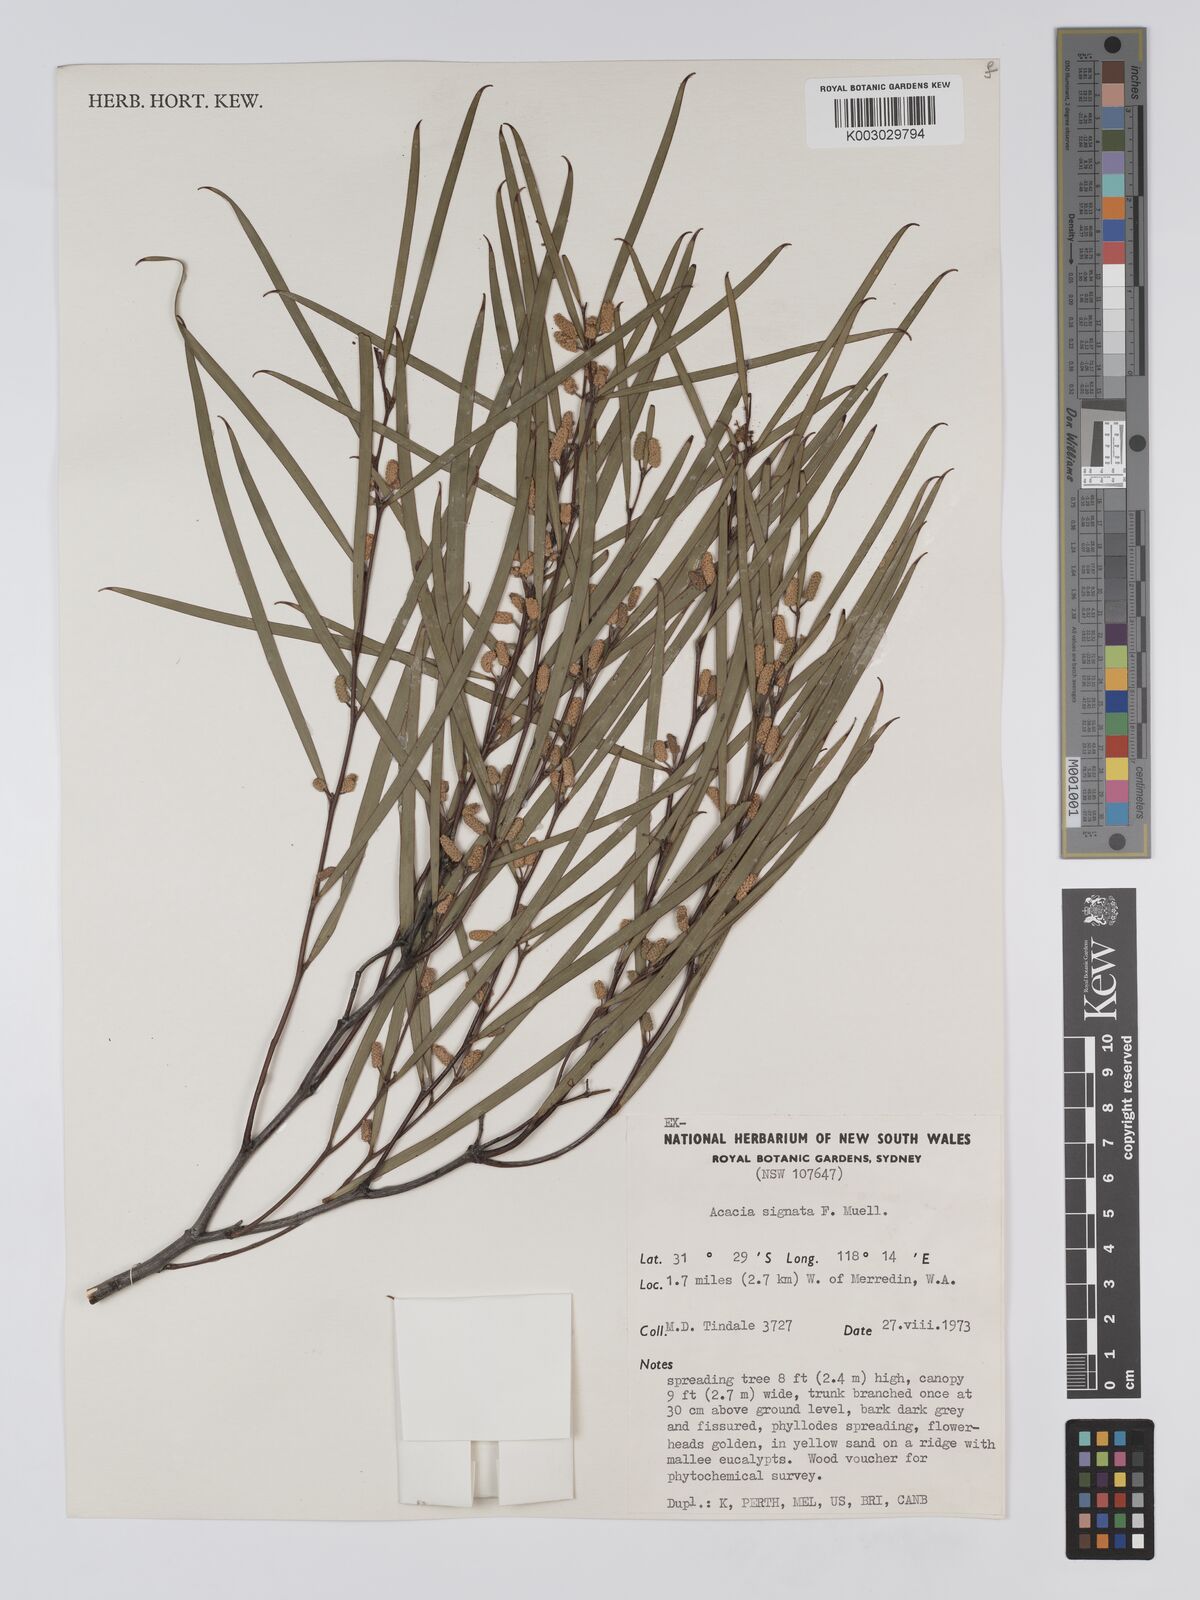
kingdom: Plantae
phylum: Tracheophyta
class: Magnoliopsida
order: Fabales
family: Fabaceae
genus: Acacia
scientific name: Acacia signata
